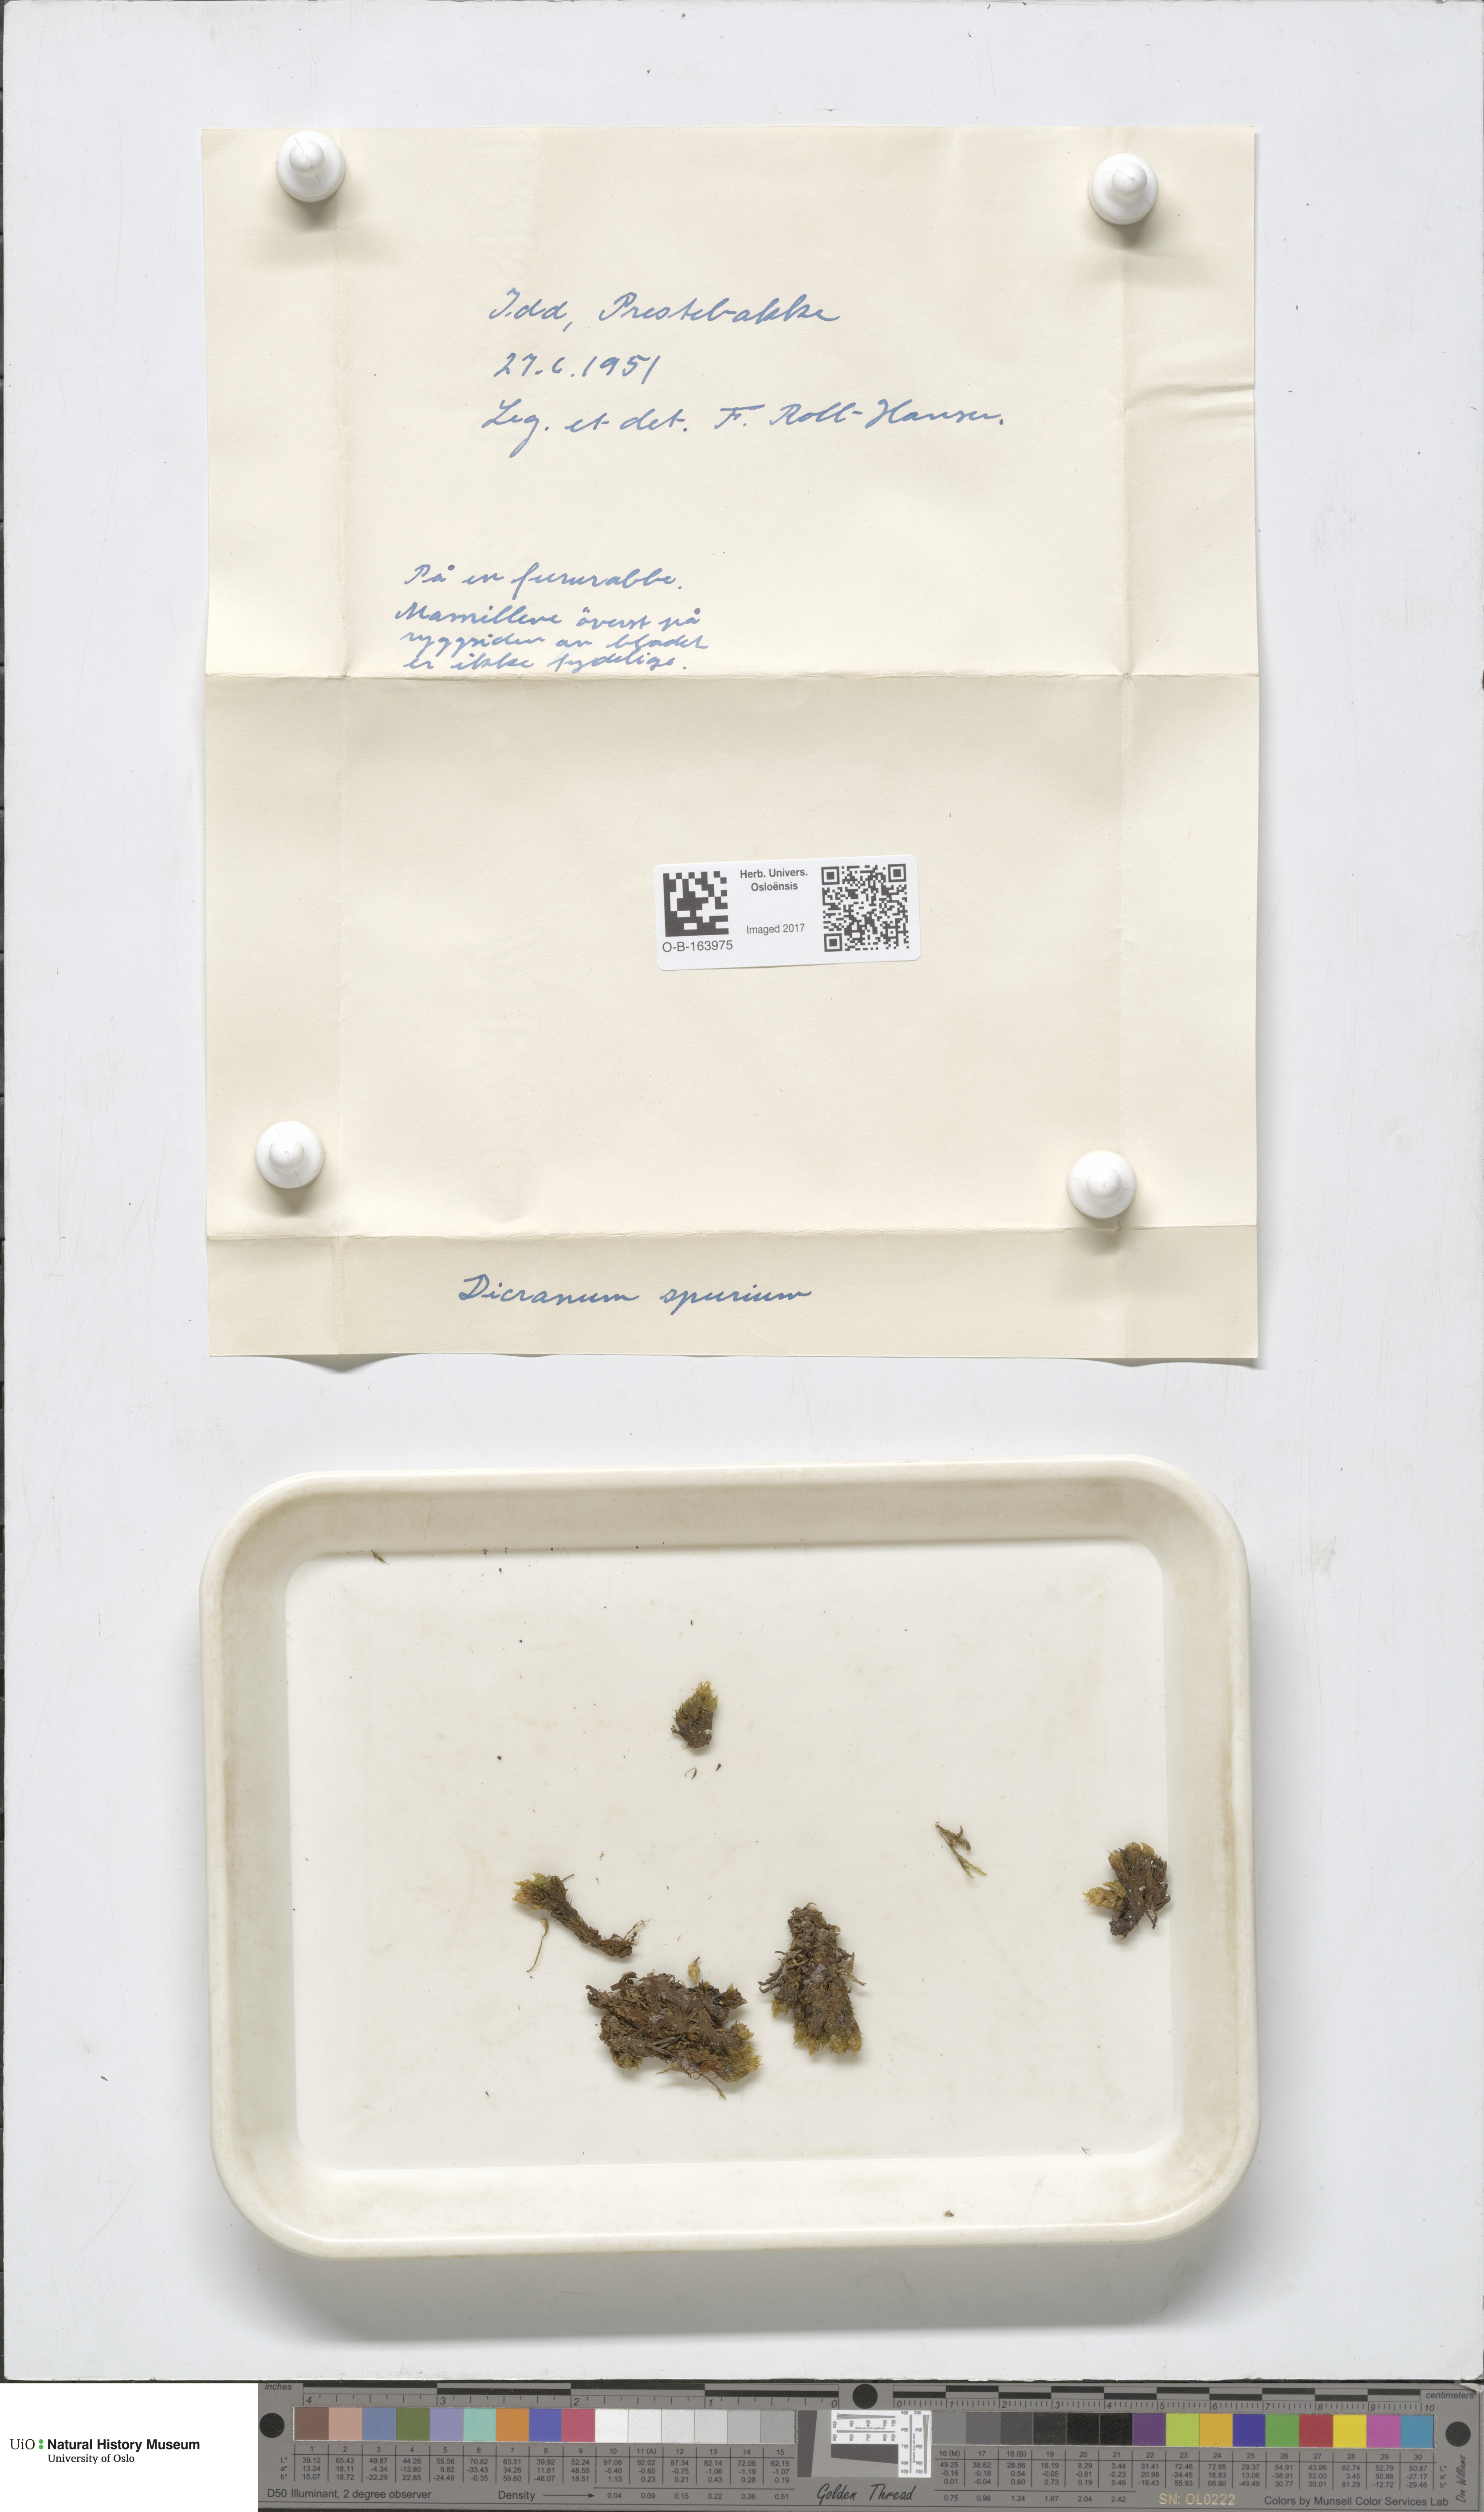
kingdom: Plantae
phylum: Bryophyta
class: Bryopsida
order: Dicranales
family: Dicranaceae
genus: Dicranum
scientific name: Dicranum spurium
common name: Spurred broom moss
